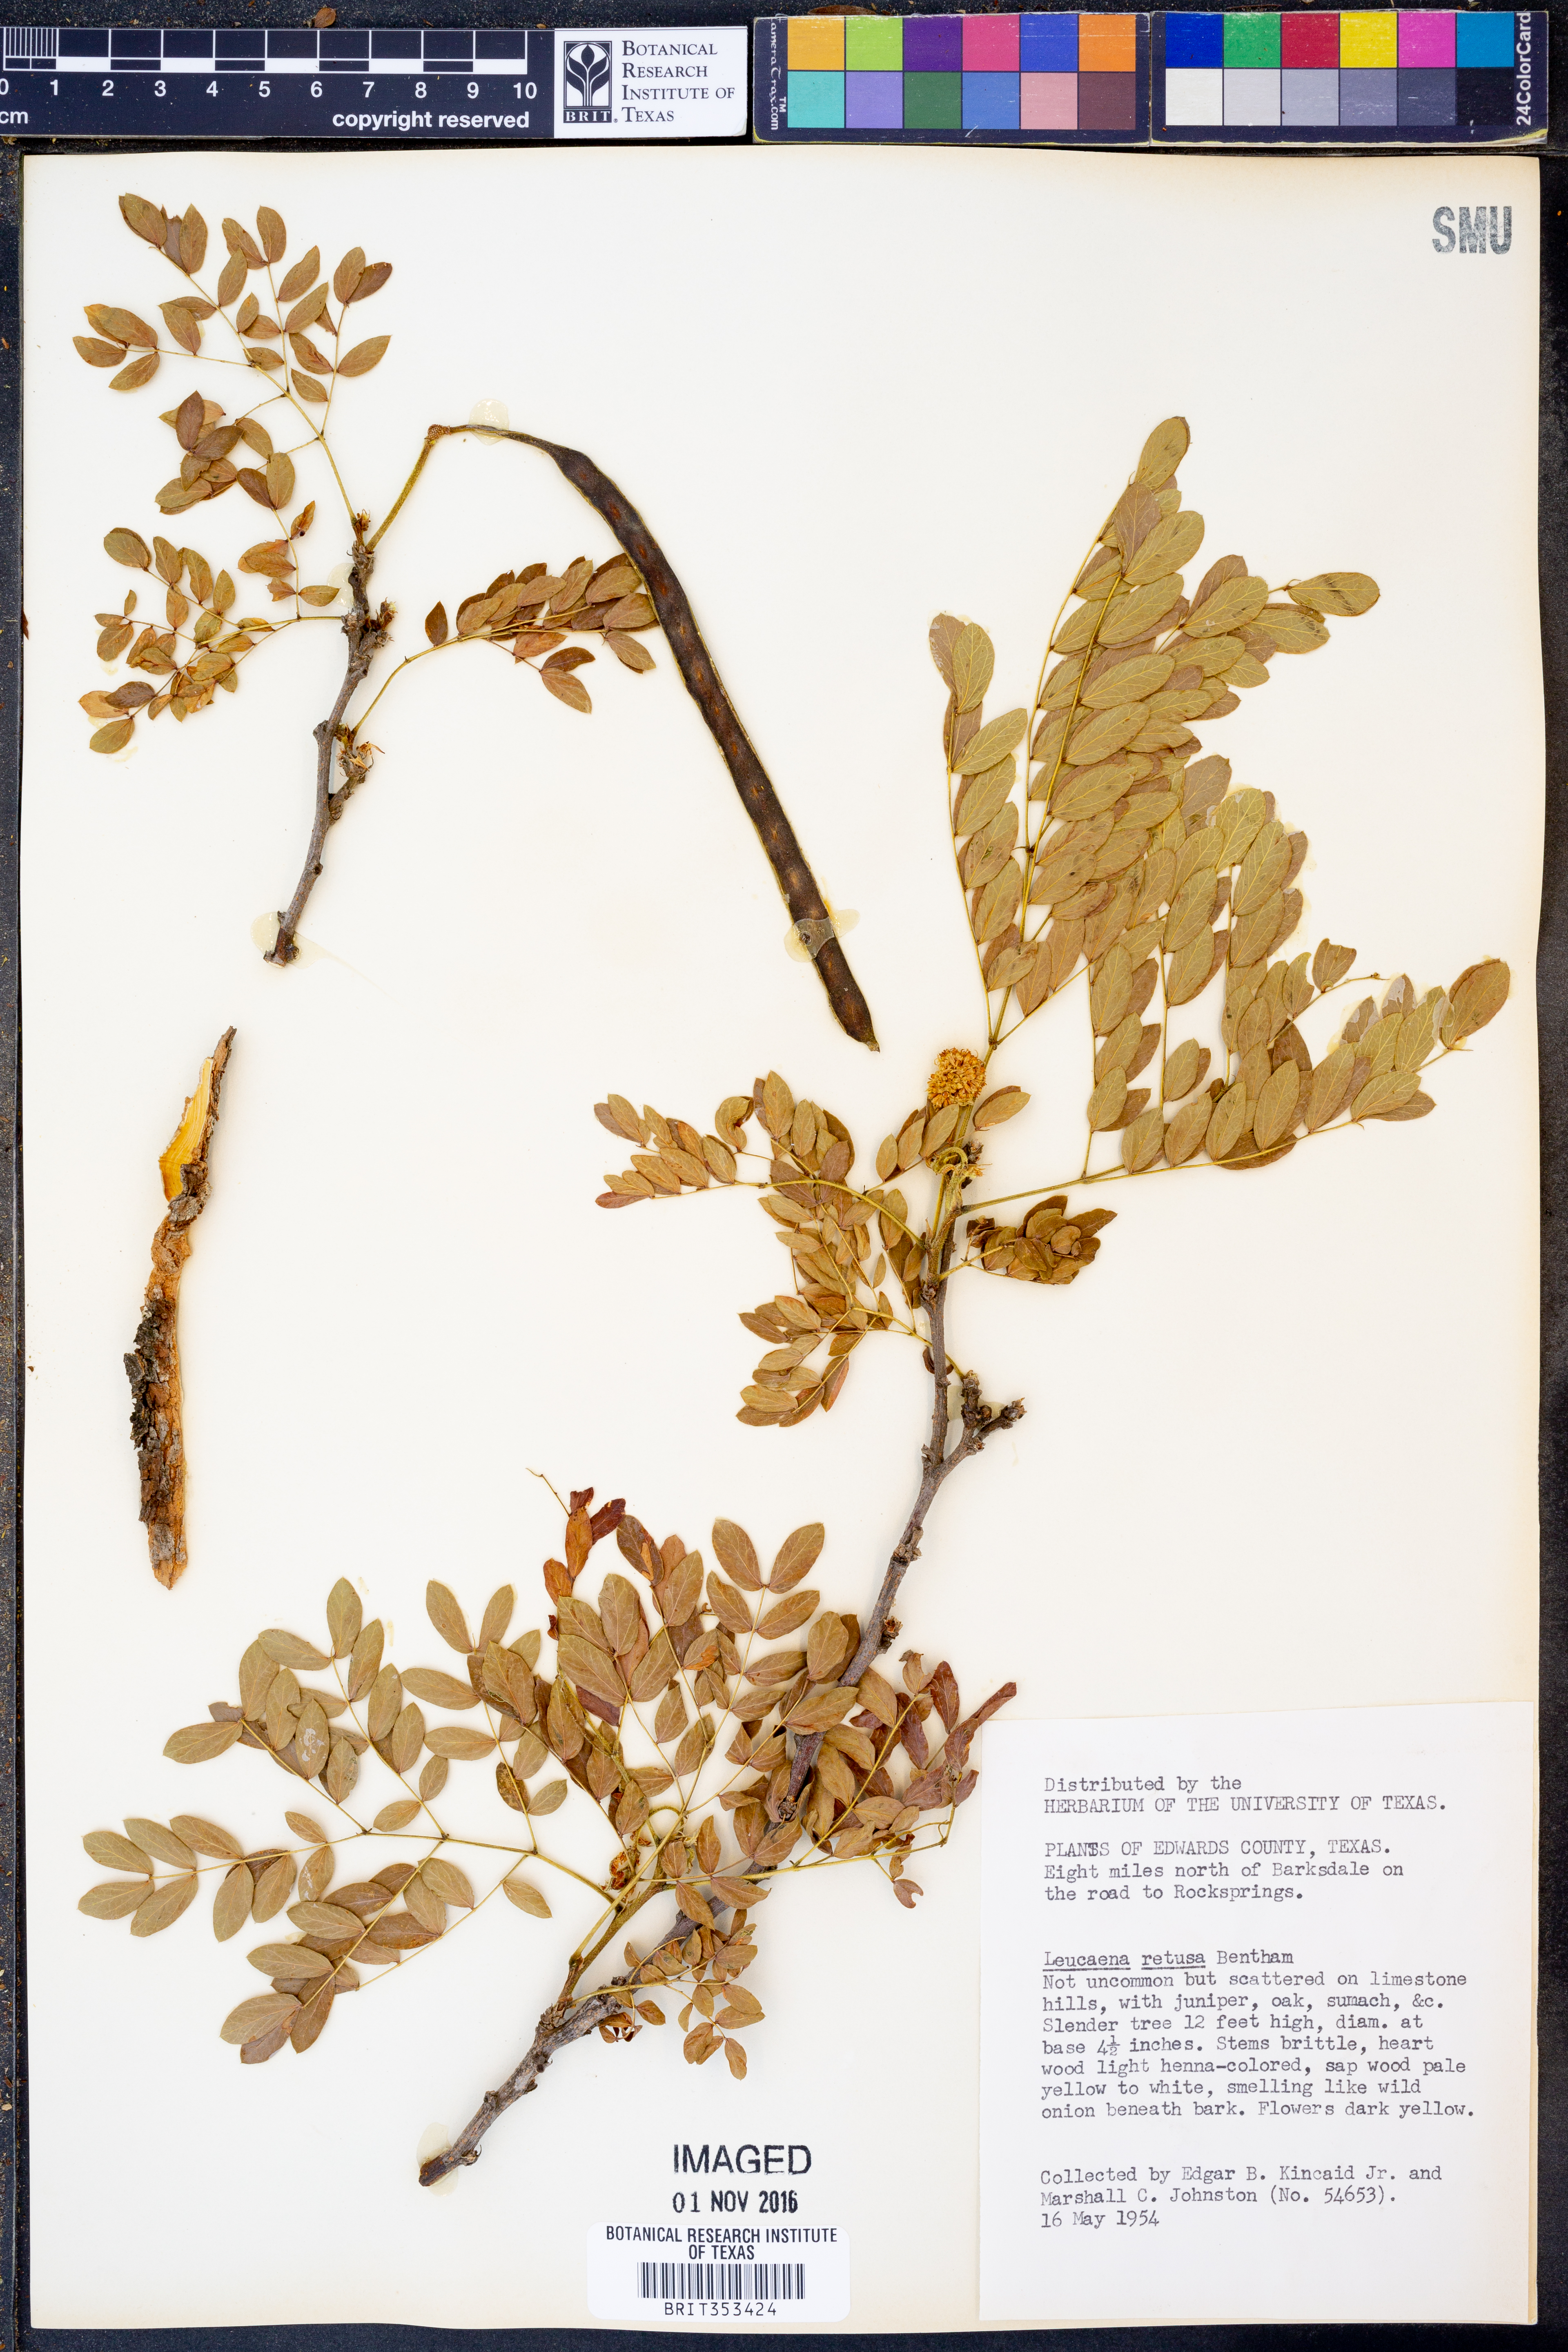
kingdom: Plantae
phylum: Tracheophyta
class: Magnoliopsida
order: Fabales
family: Fabaceae
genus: Leucaena
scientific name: Leucaena retusa
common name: Littleleaf leadtree
